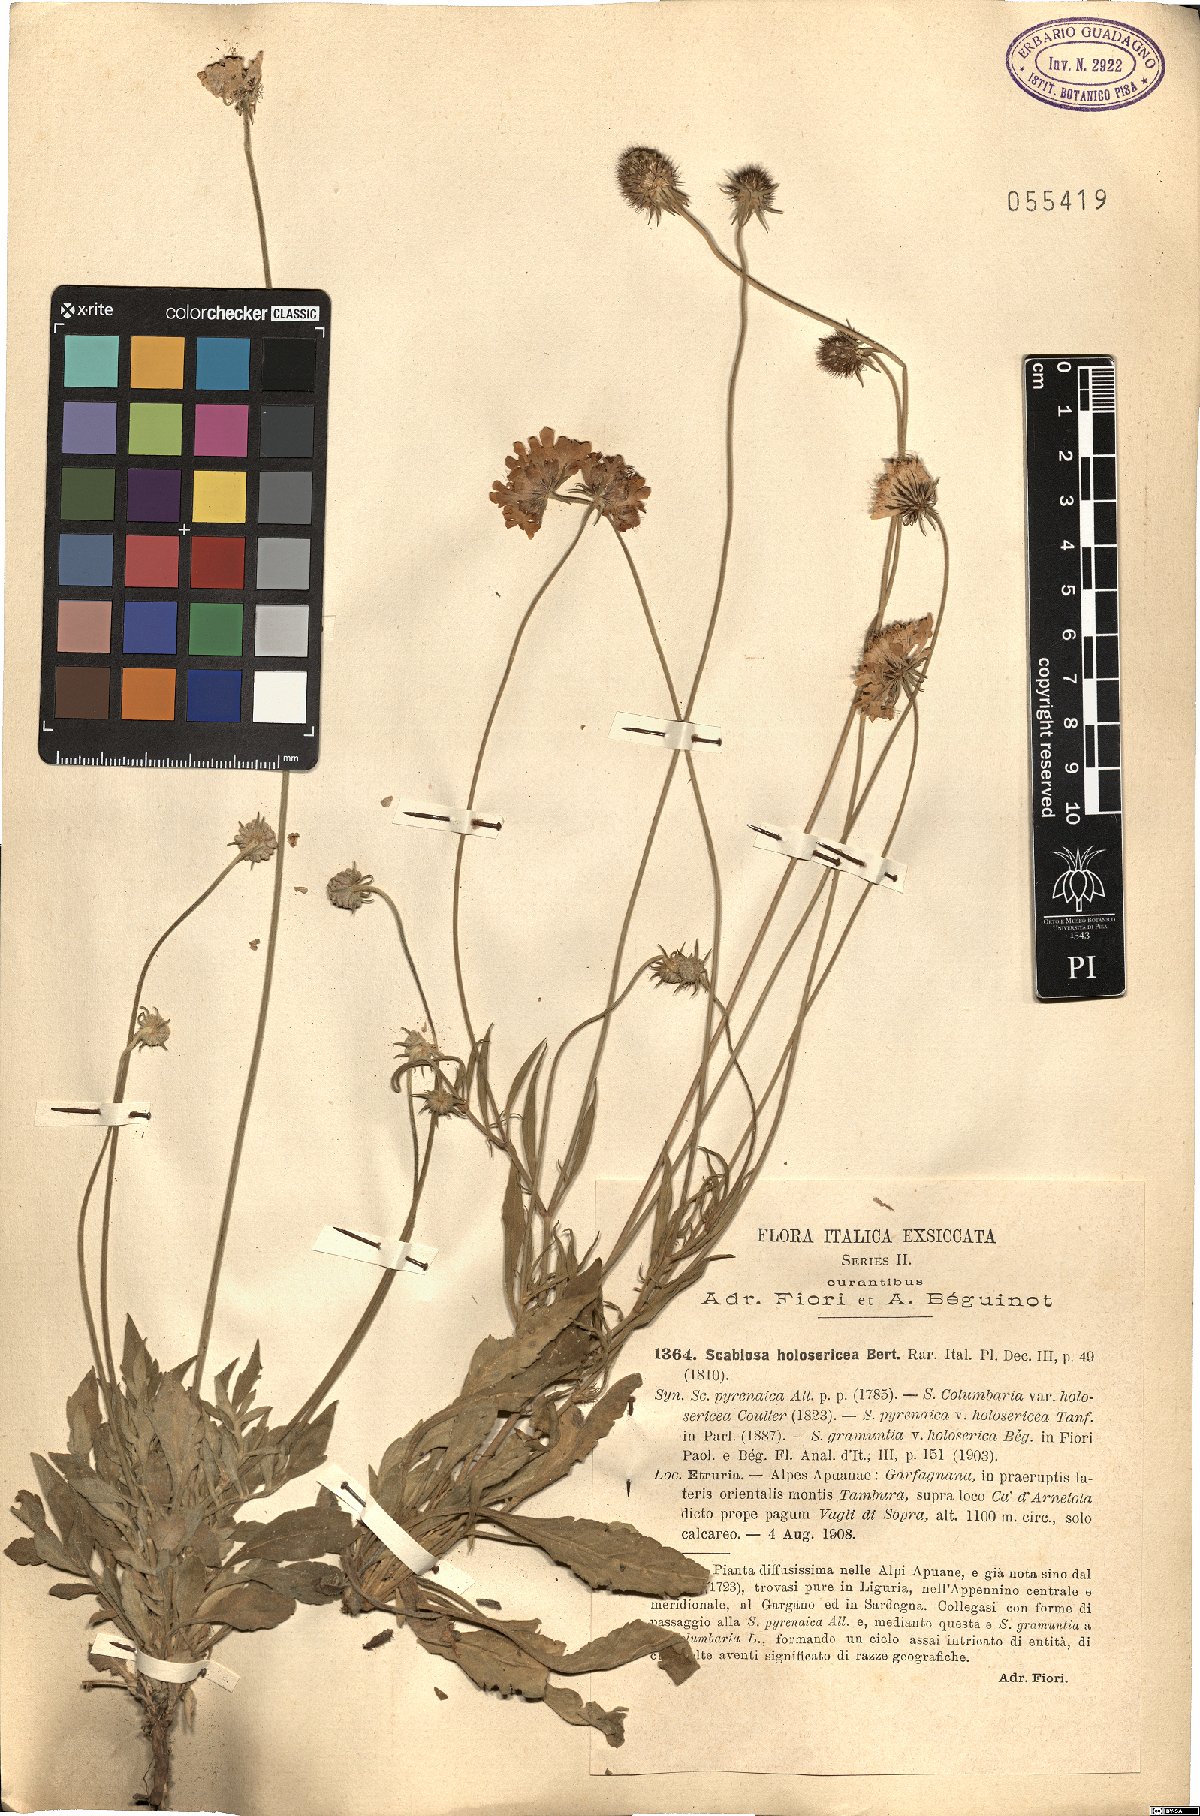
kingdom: Plantae
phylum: Tracheophyta
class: Magnoliopsida
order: Dipsacales
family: Caprifoliaceae
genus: Scabiosa
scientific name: Scabiosa holosericea
